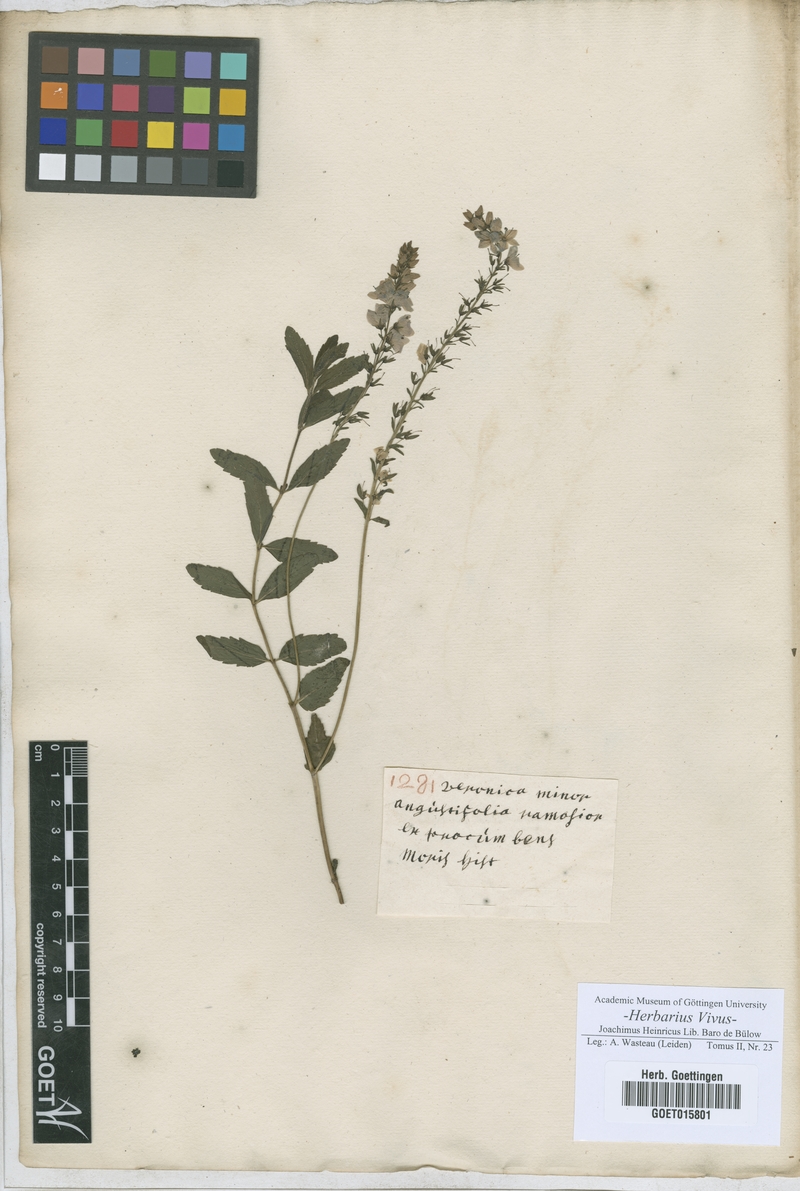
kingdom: Plantae
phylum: Tracheophyta
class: Magnoliopsida
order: Lamiales
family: Plantaginaceae
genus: Veronica
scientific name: Veronica
